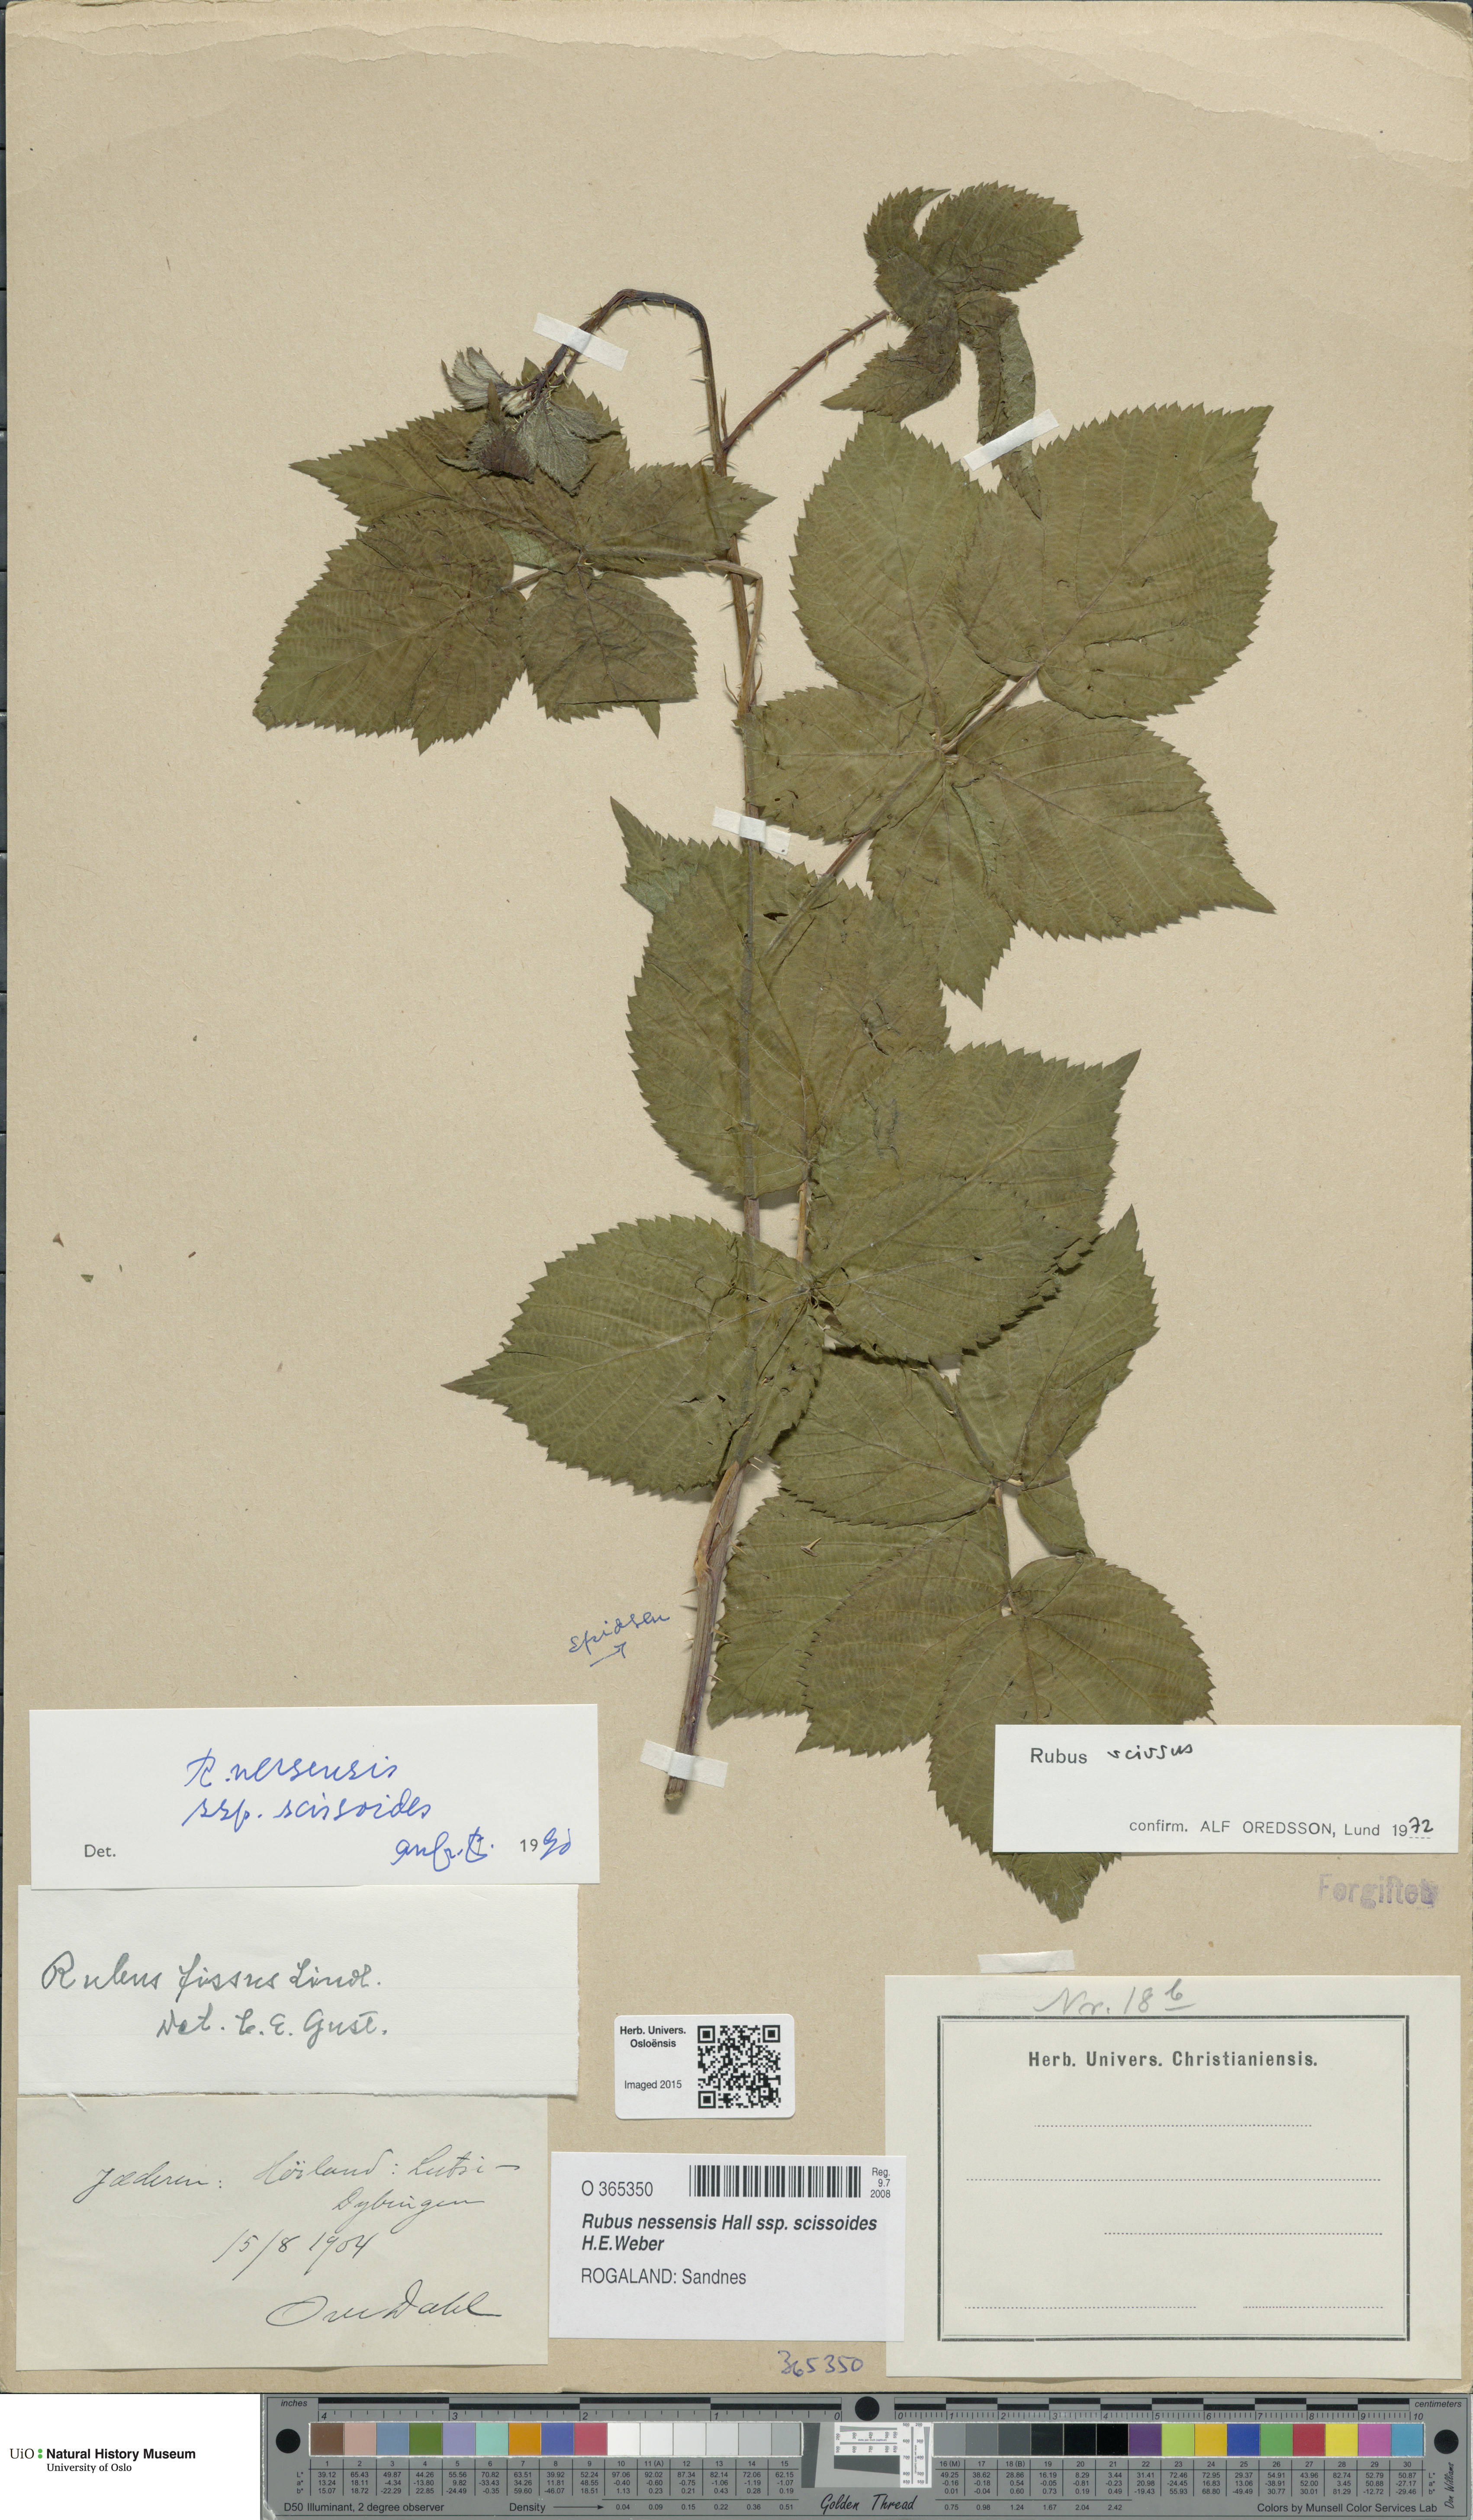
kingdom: Plantae
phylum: Tracheophyta
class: Magnoliopsida
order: Rosales
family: Rosaceae
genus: Rubus
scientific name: Rubus scissus
